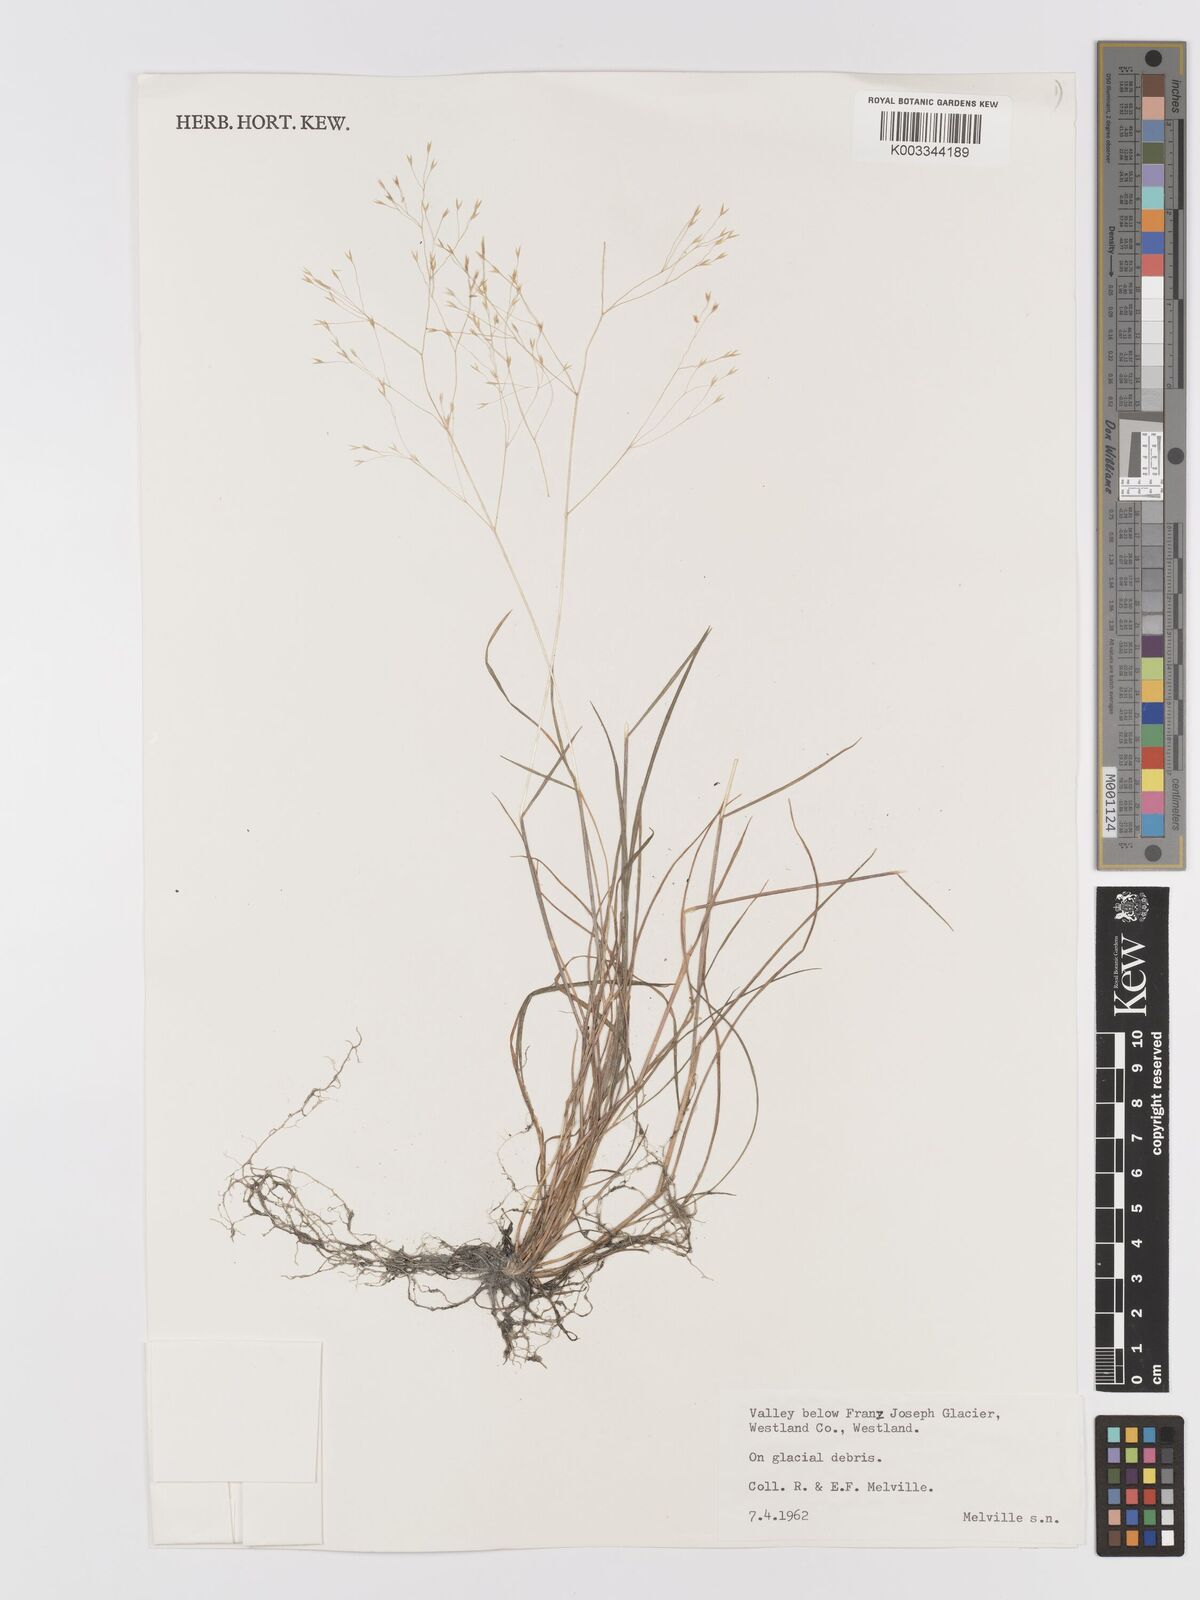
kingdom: Plantae
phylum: Tracheophyta
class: Liliopsida
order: Poales
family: Poaceae
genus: Agrostis
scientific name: Agrostis
